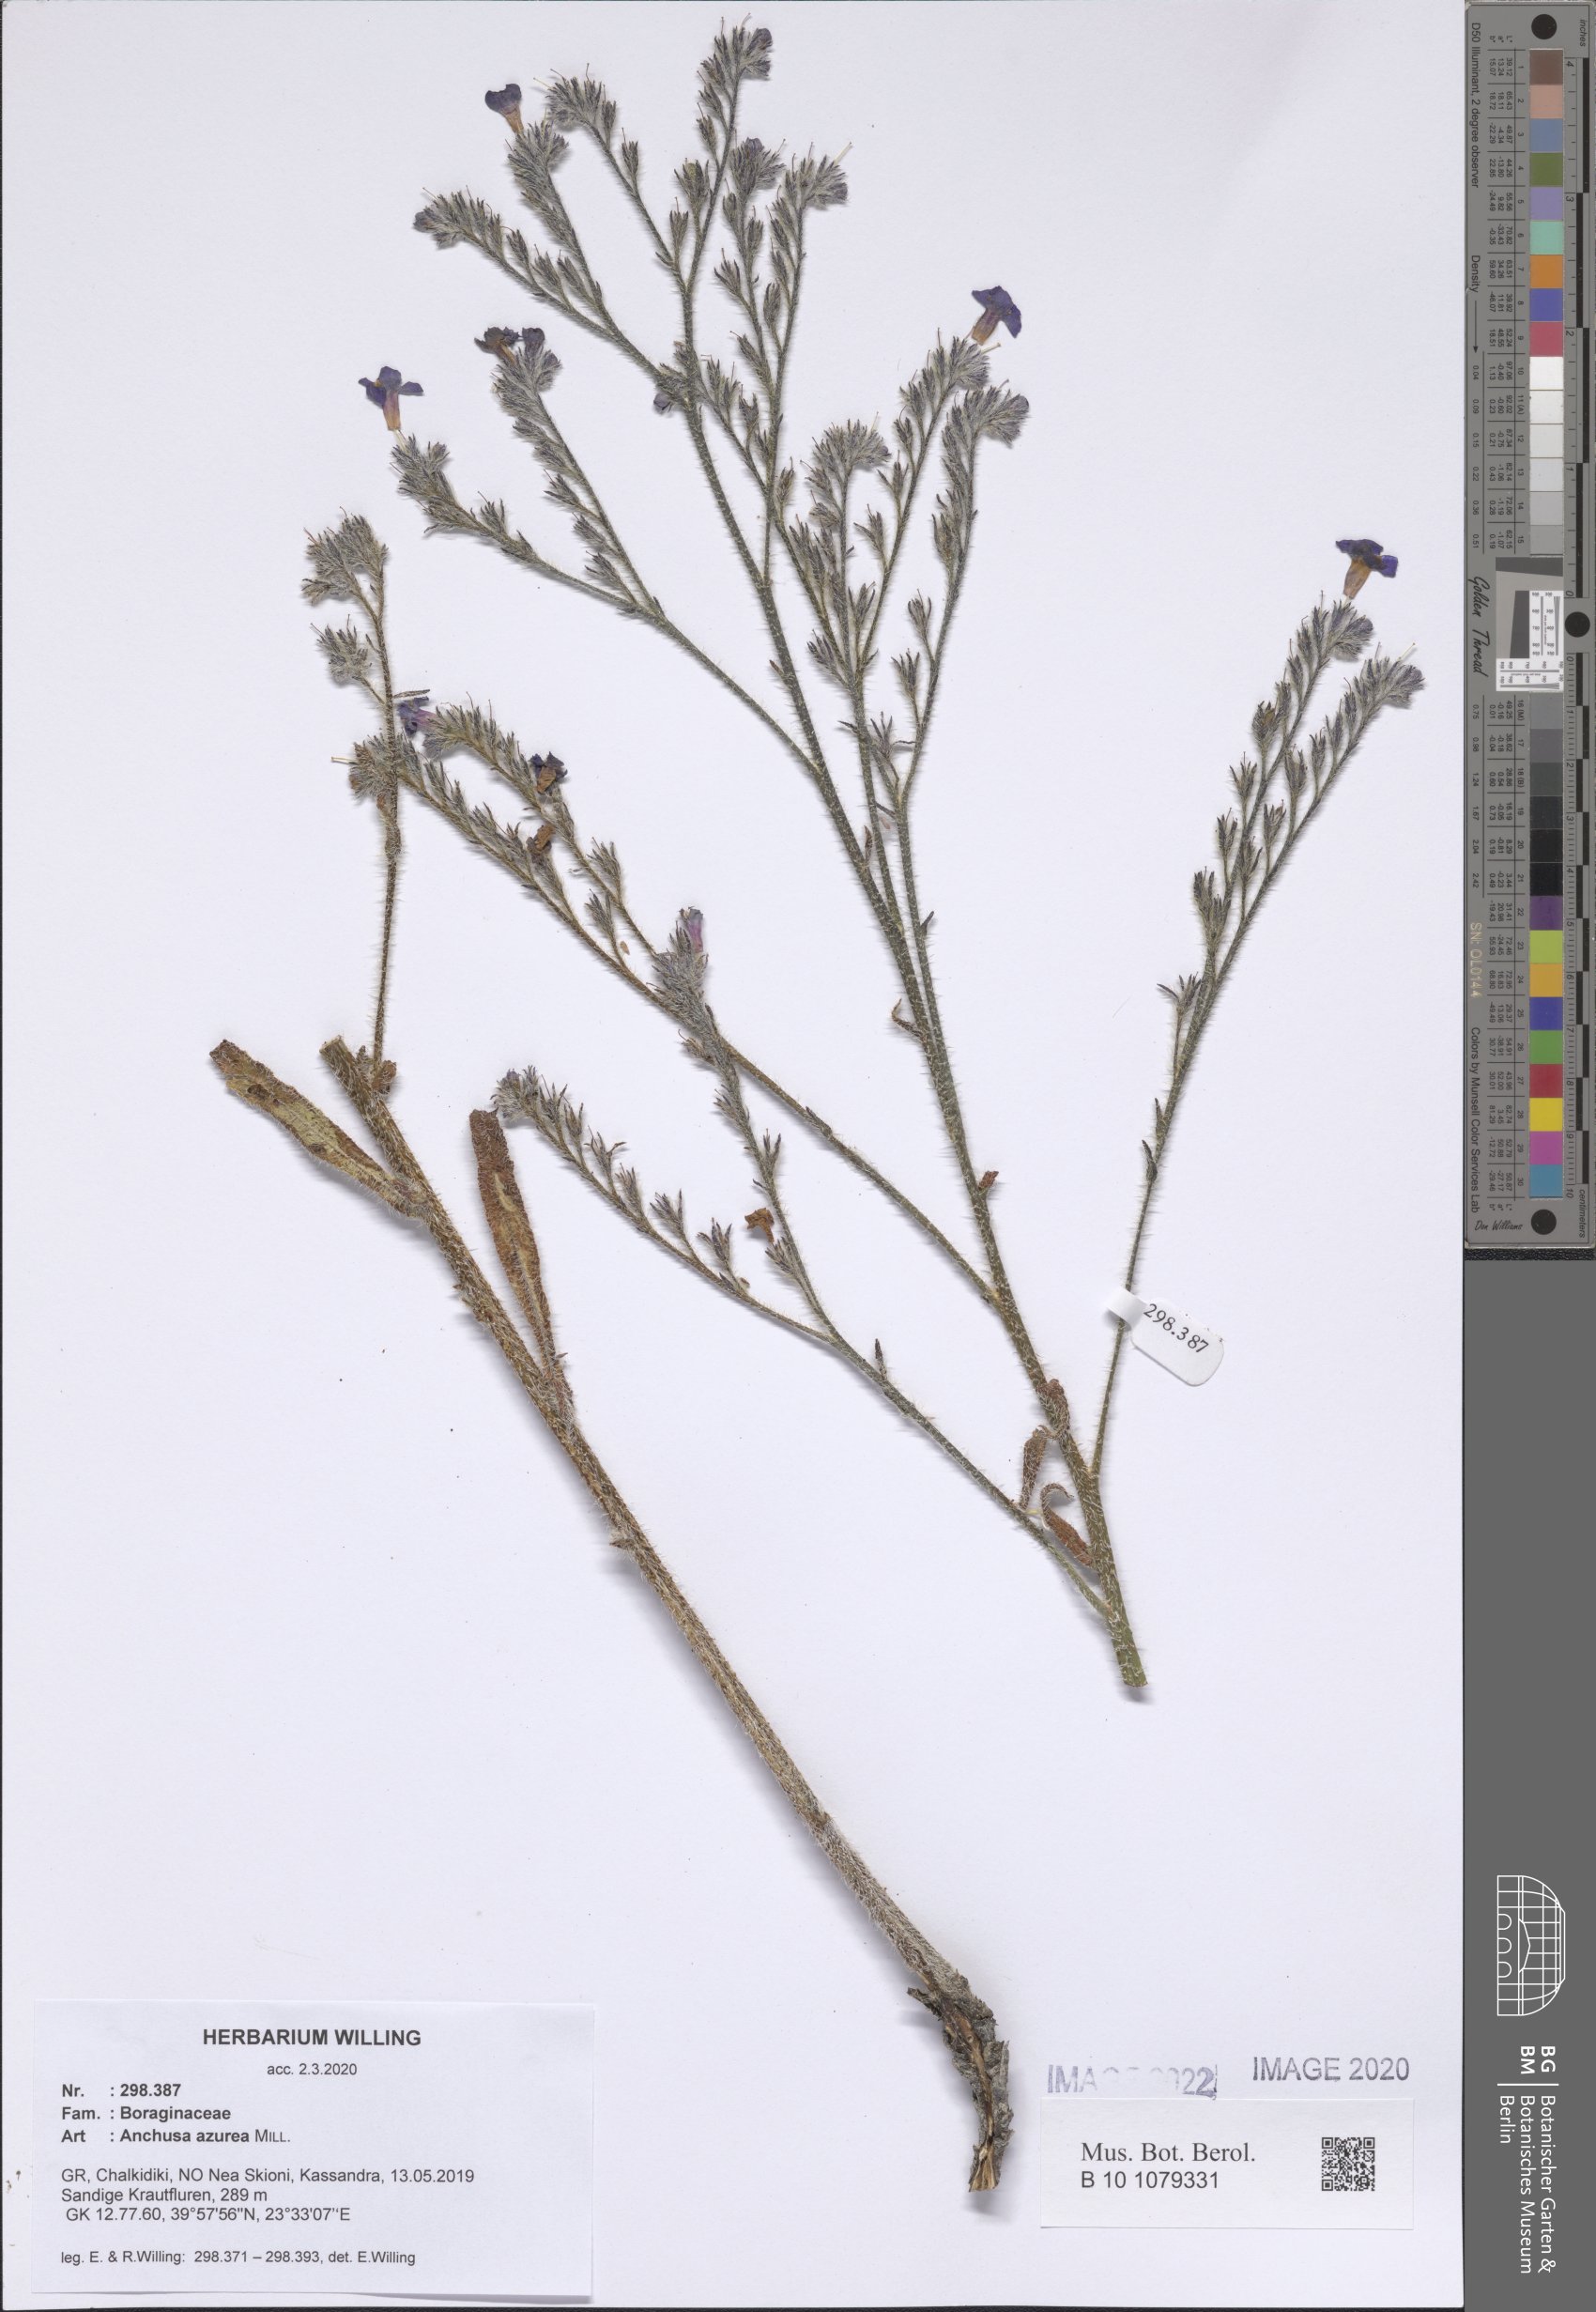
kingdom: Plantae
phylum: Tracheophyta
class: Magnoliopsida
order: Boraginales
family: Boraginaceae
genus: Anchusa
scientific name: Anchusa azurea
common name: Garden anchusa
